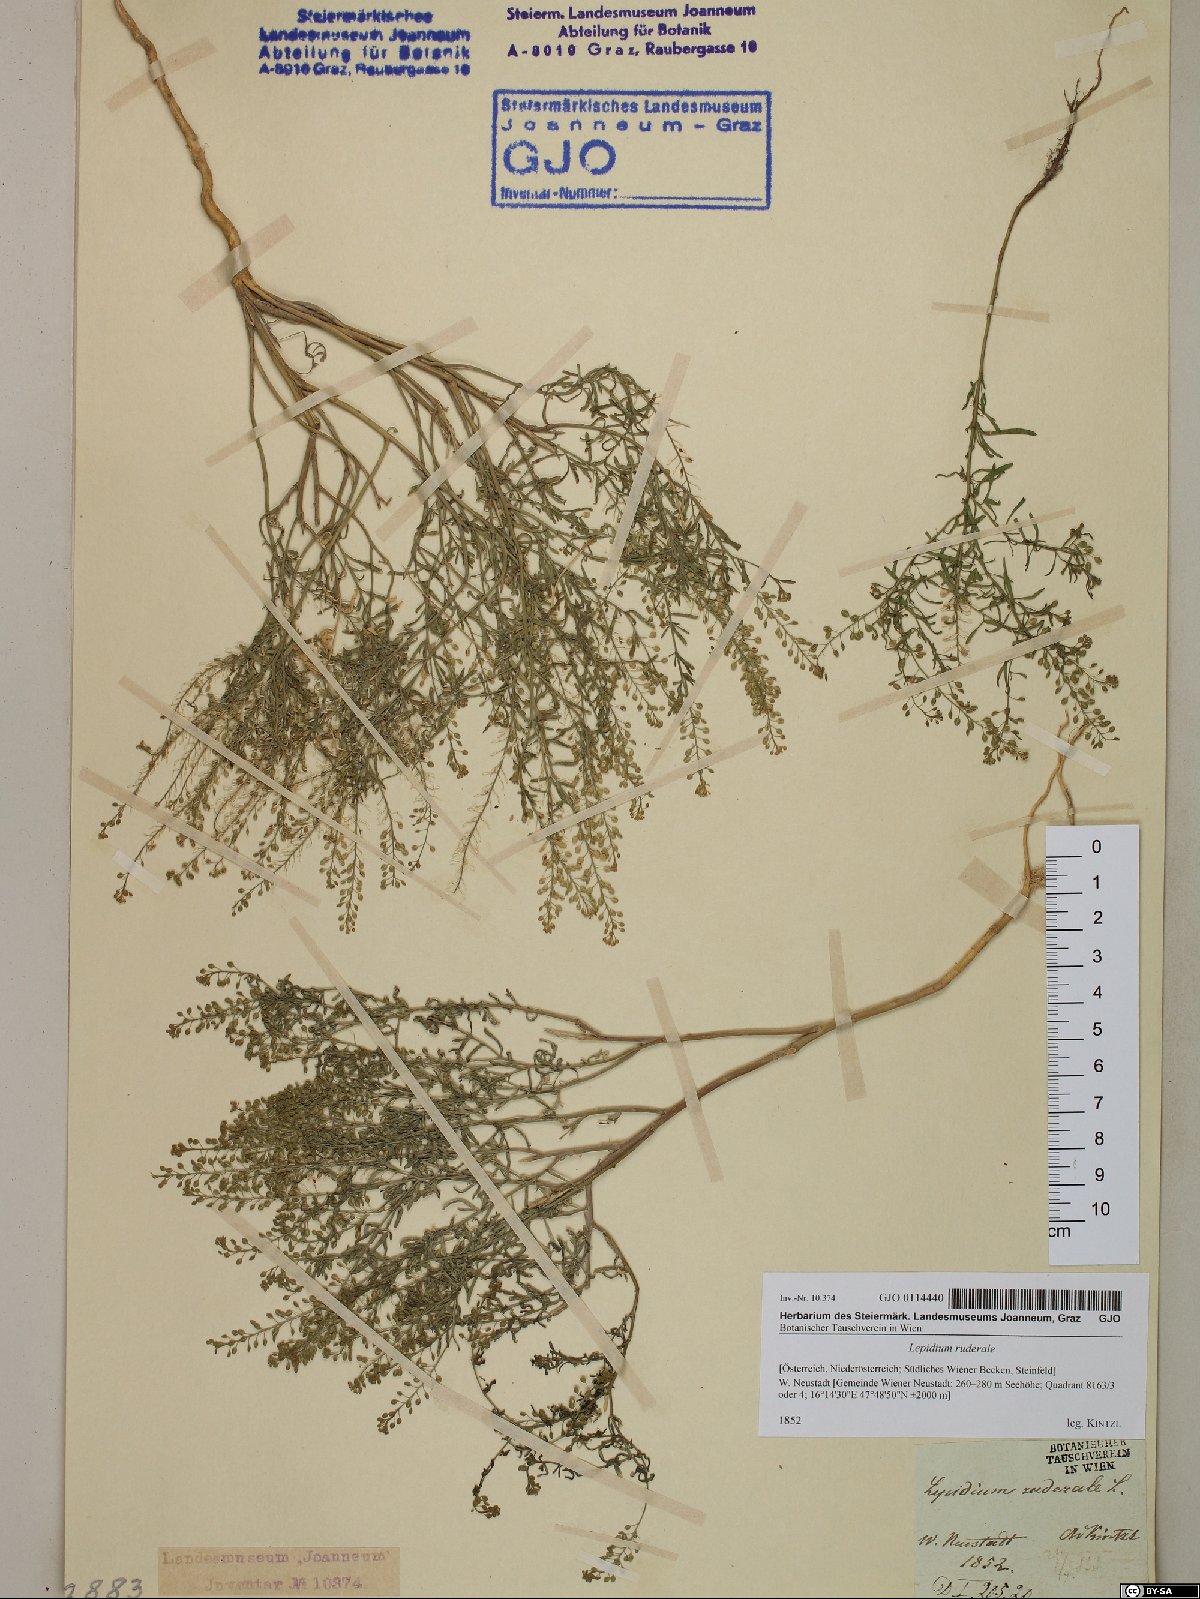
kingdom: Plantae
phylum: Tracheophyta
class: Magnoliopsida
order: Brassicales
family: Brassicaceae
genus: Lepidium
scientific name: Lepidium ruderale
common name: Narrow-leaved pepperwort
